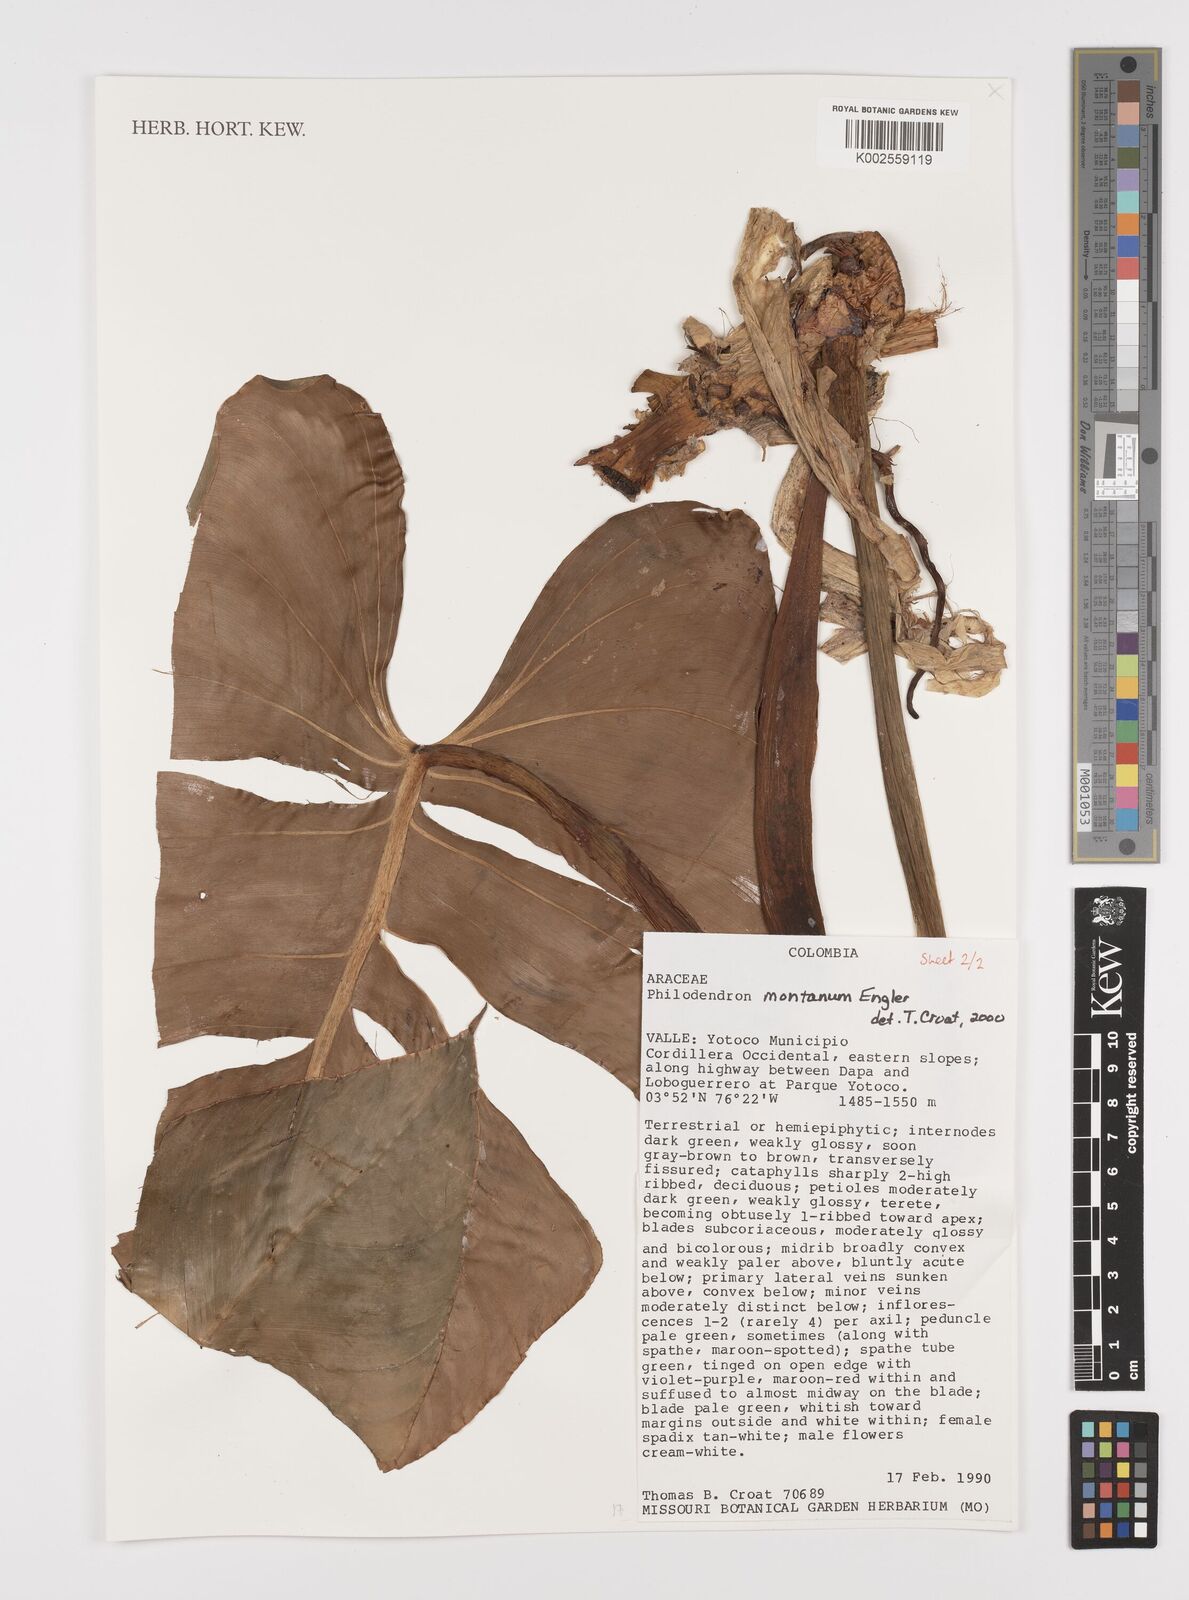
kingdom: Plantae
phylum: Tracheophyta
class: Liliopsida
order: Alismatales
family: Araceae
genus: Philodendron
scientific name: Philodendron montanum
